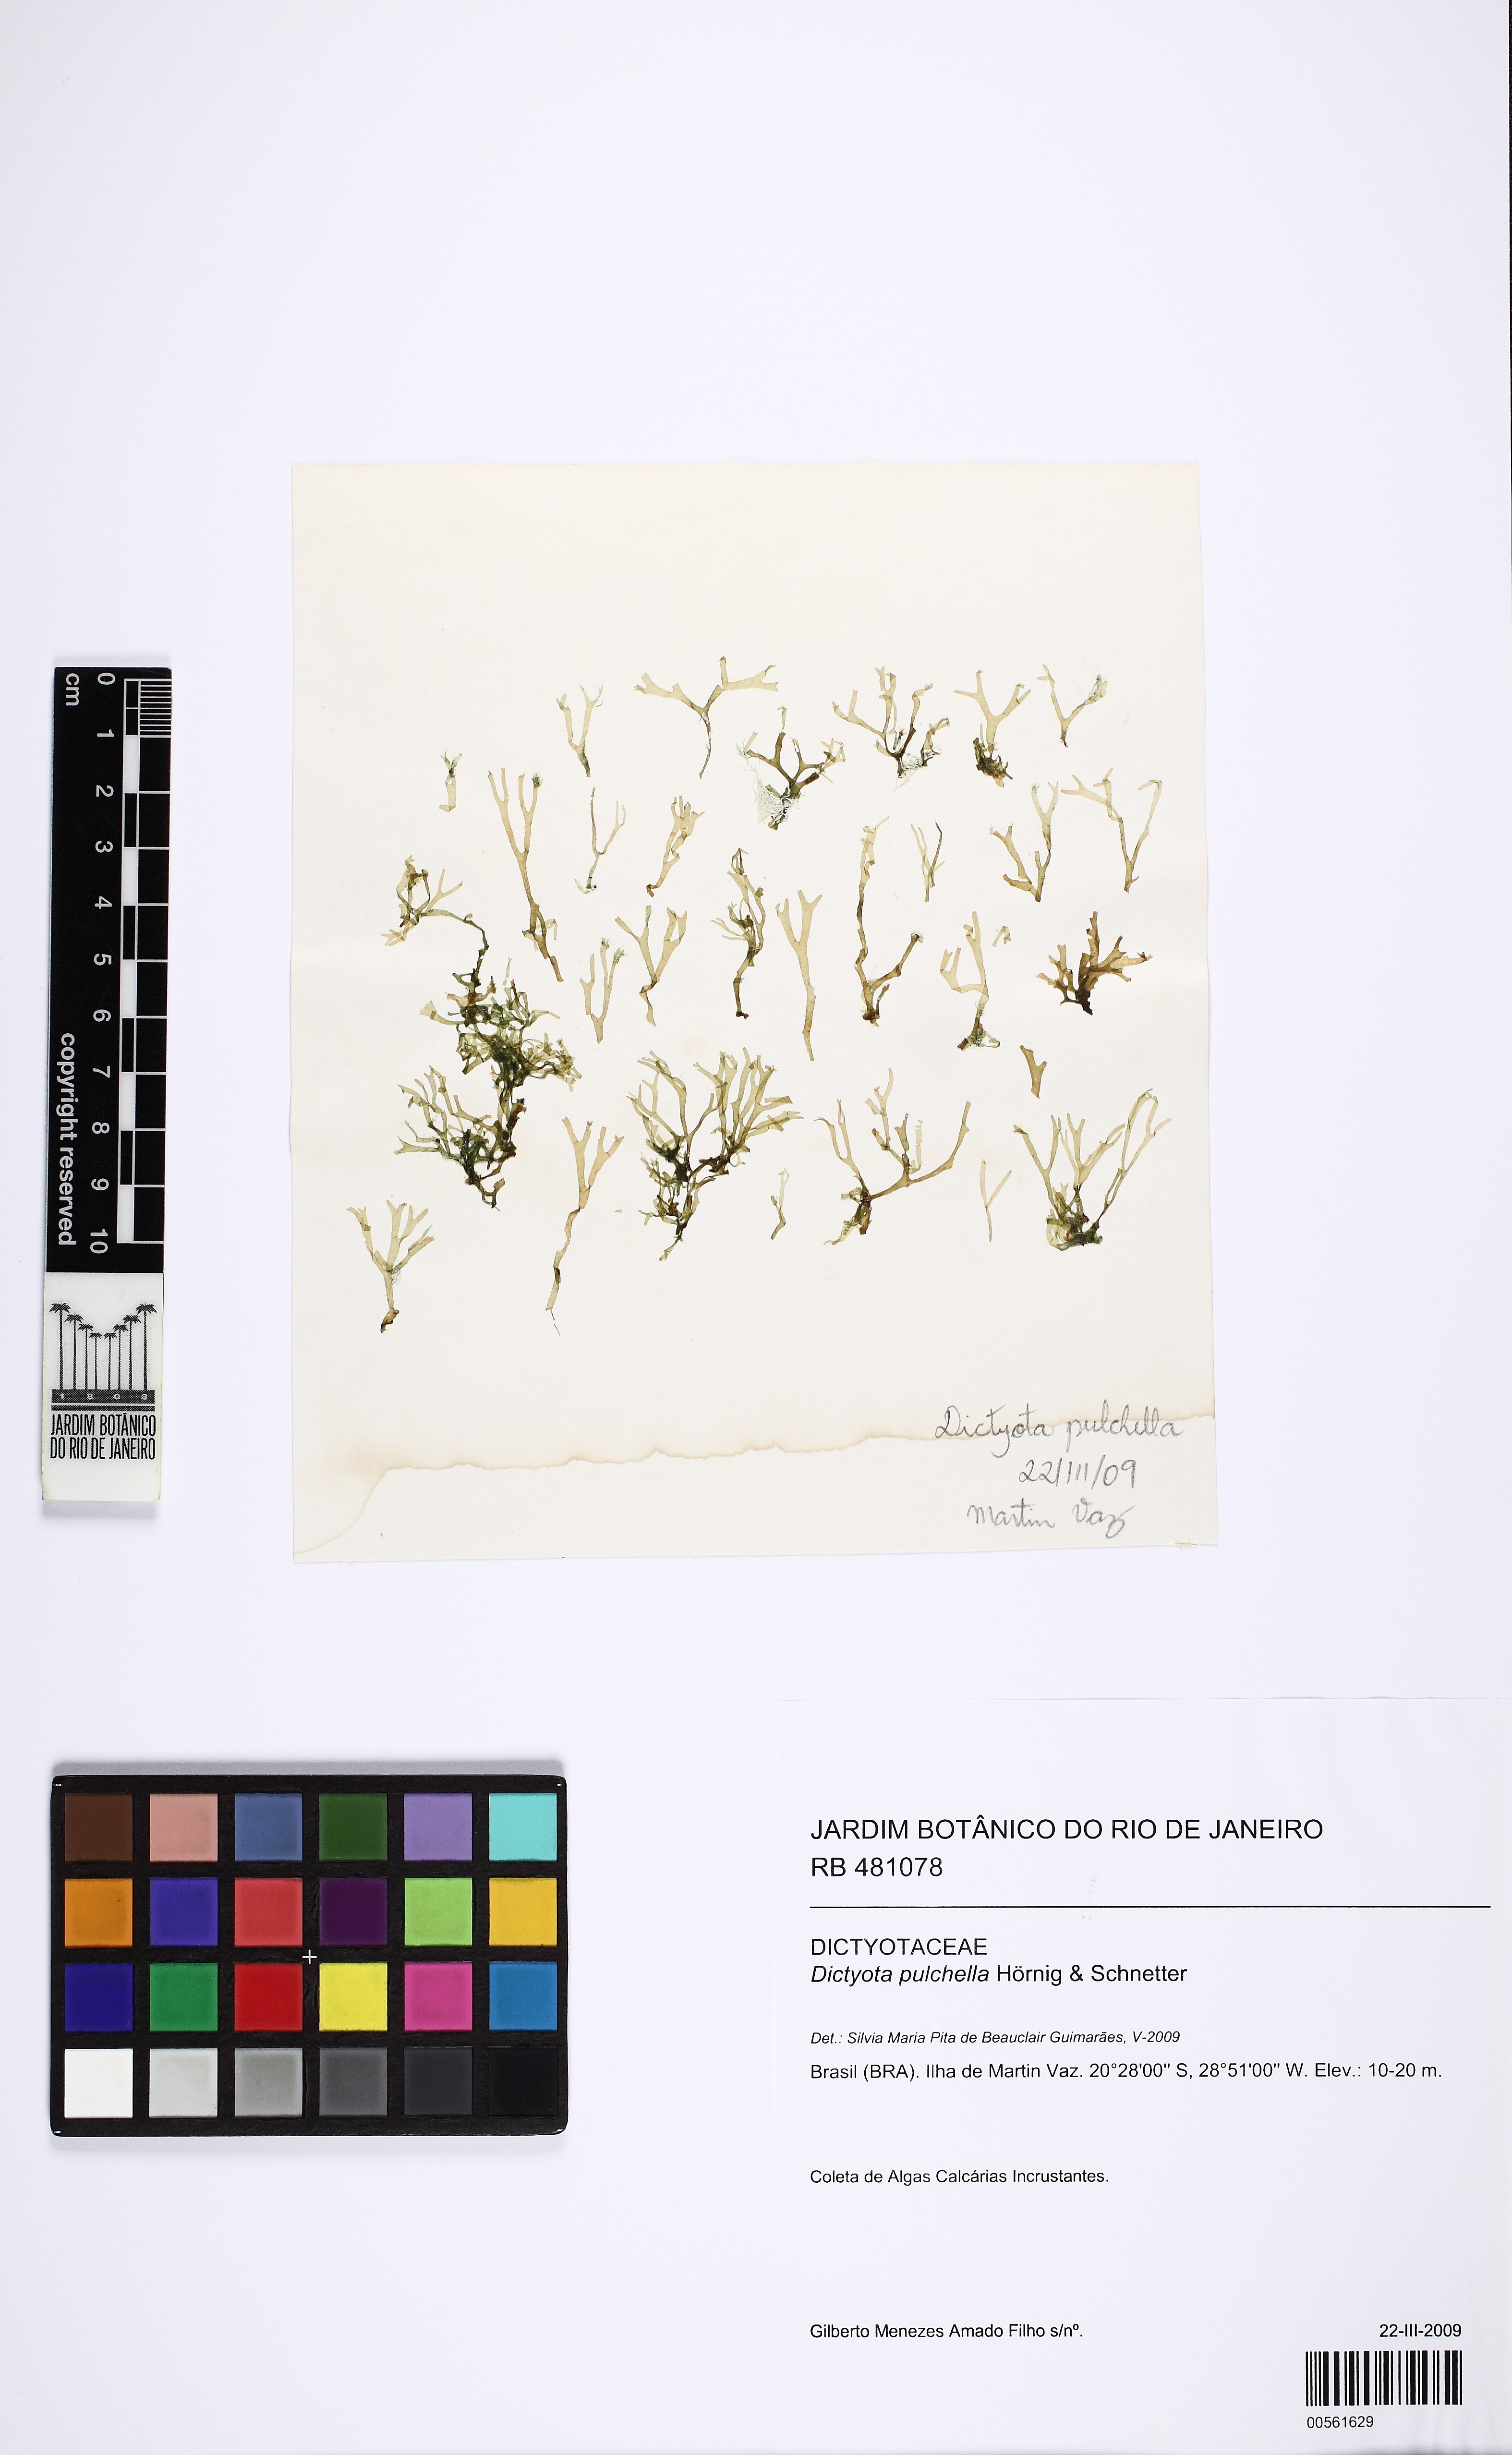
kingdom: Chromista
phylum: Ochrophyta
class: Phaeophyceae
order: Dictyotales
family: Dictyotaceae
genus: Dictyota
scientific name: Dictyota pulchella
